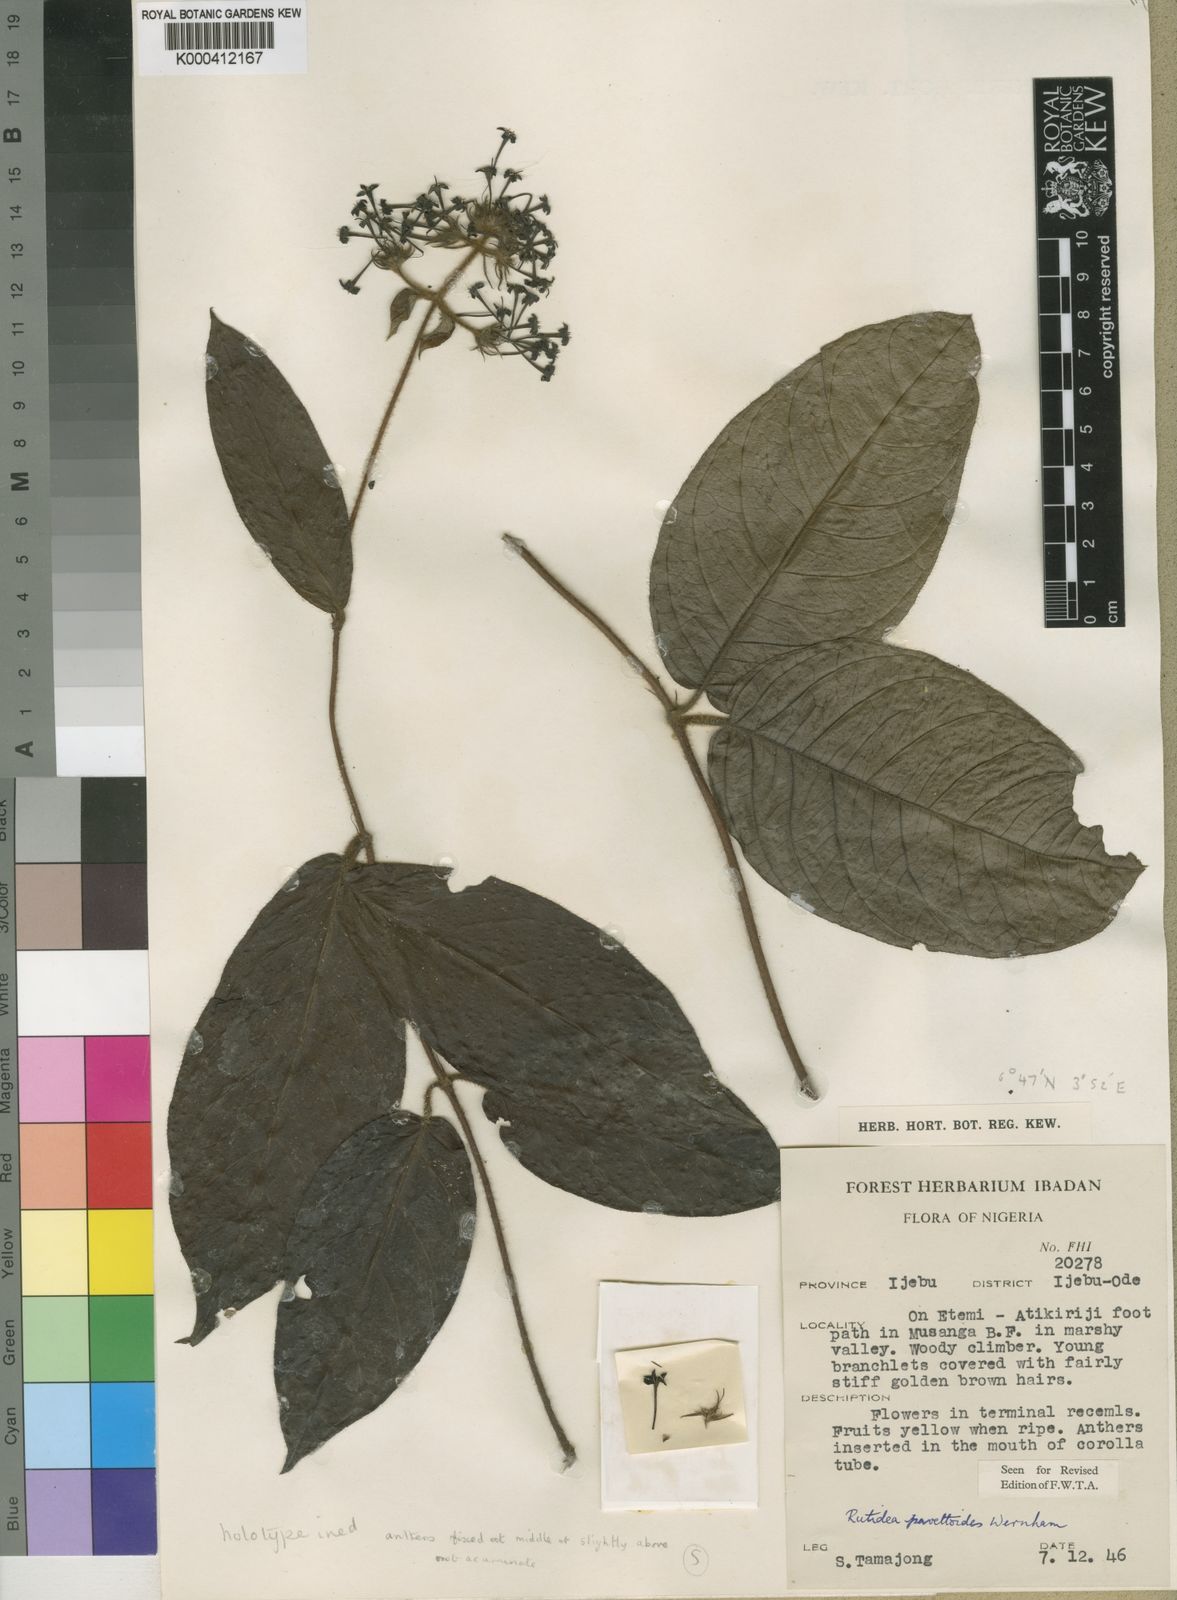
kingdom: Plantae
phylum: Tracheophyta
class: Magnoliopsida
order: Gentianales
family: Rubiaceae
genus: Rutidea
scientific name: Rutidea nigerica
